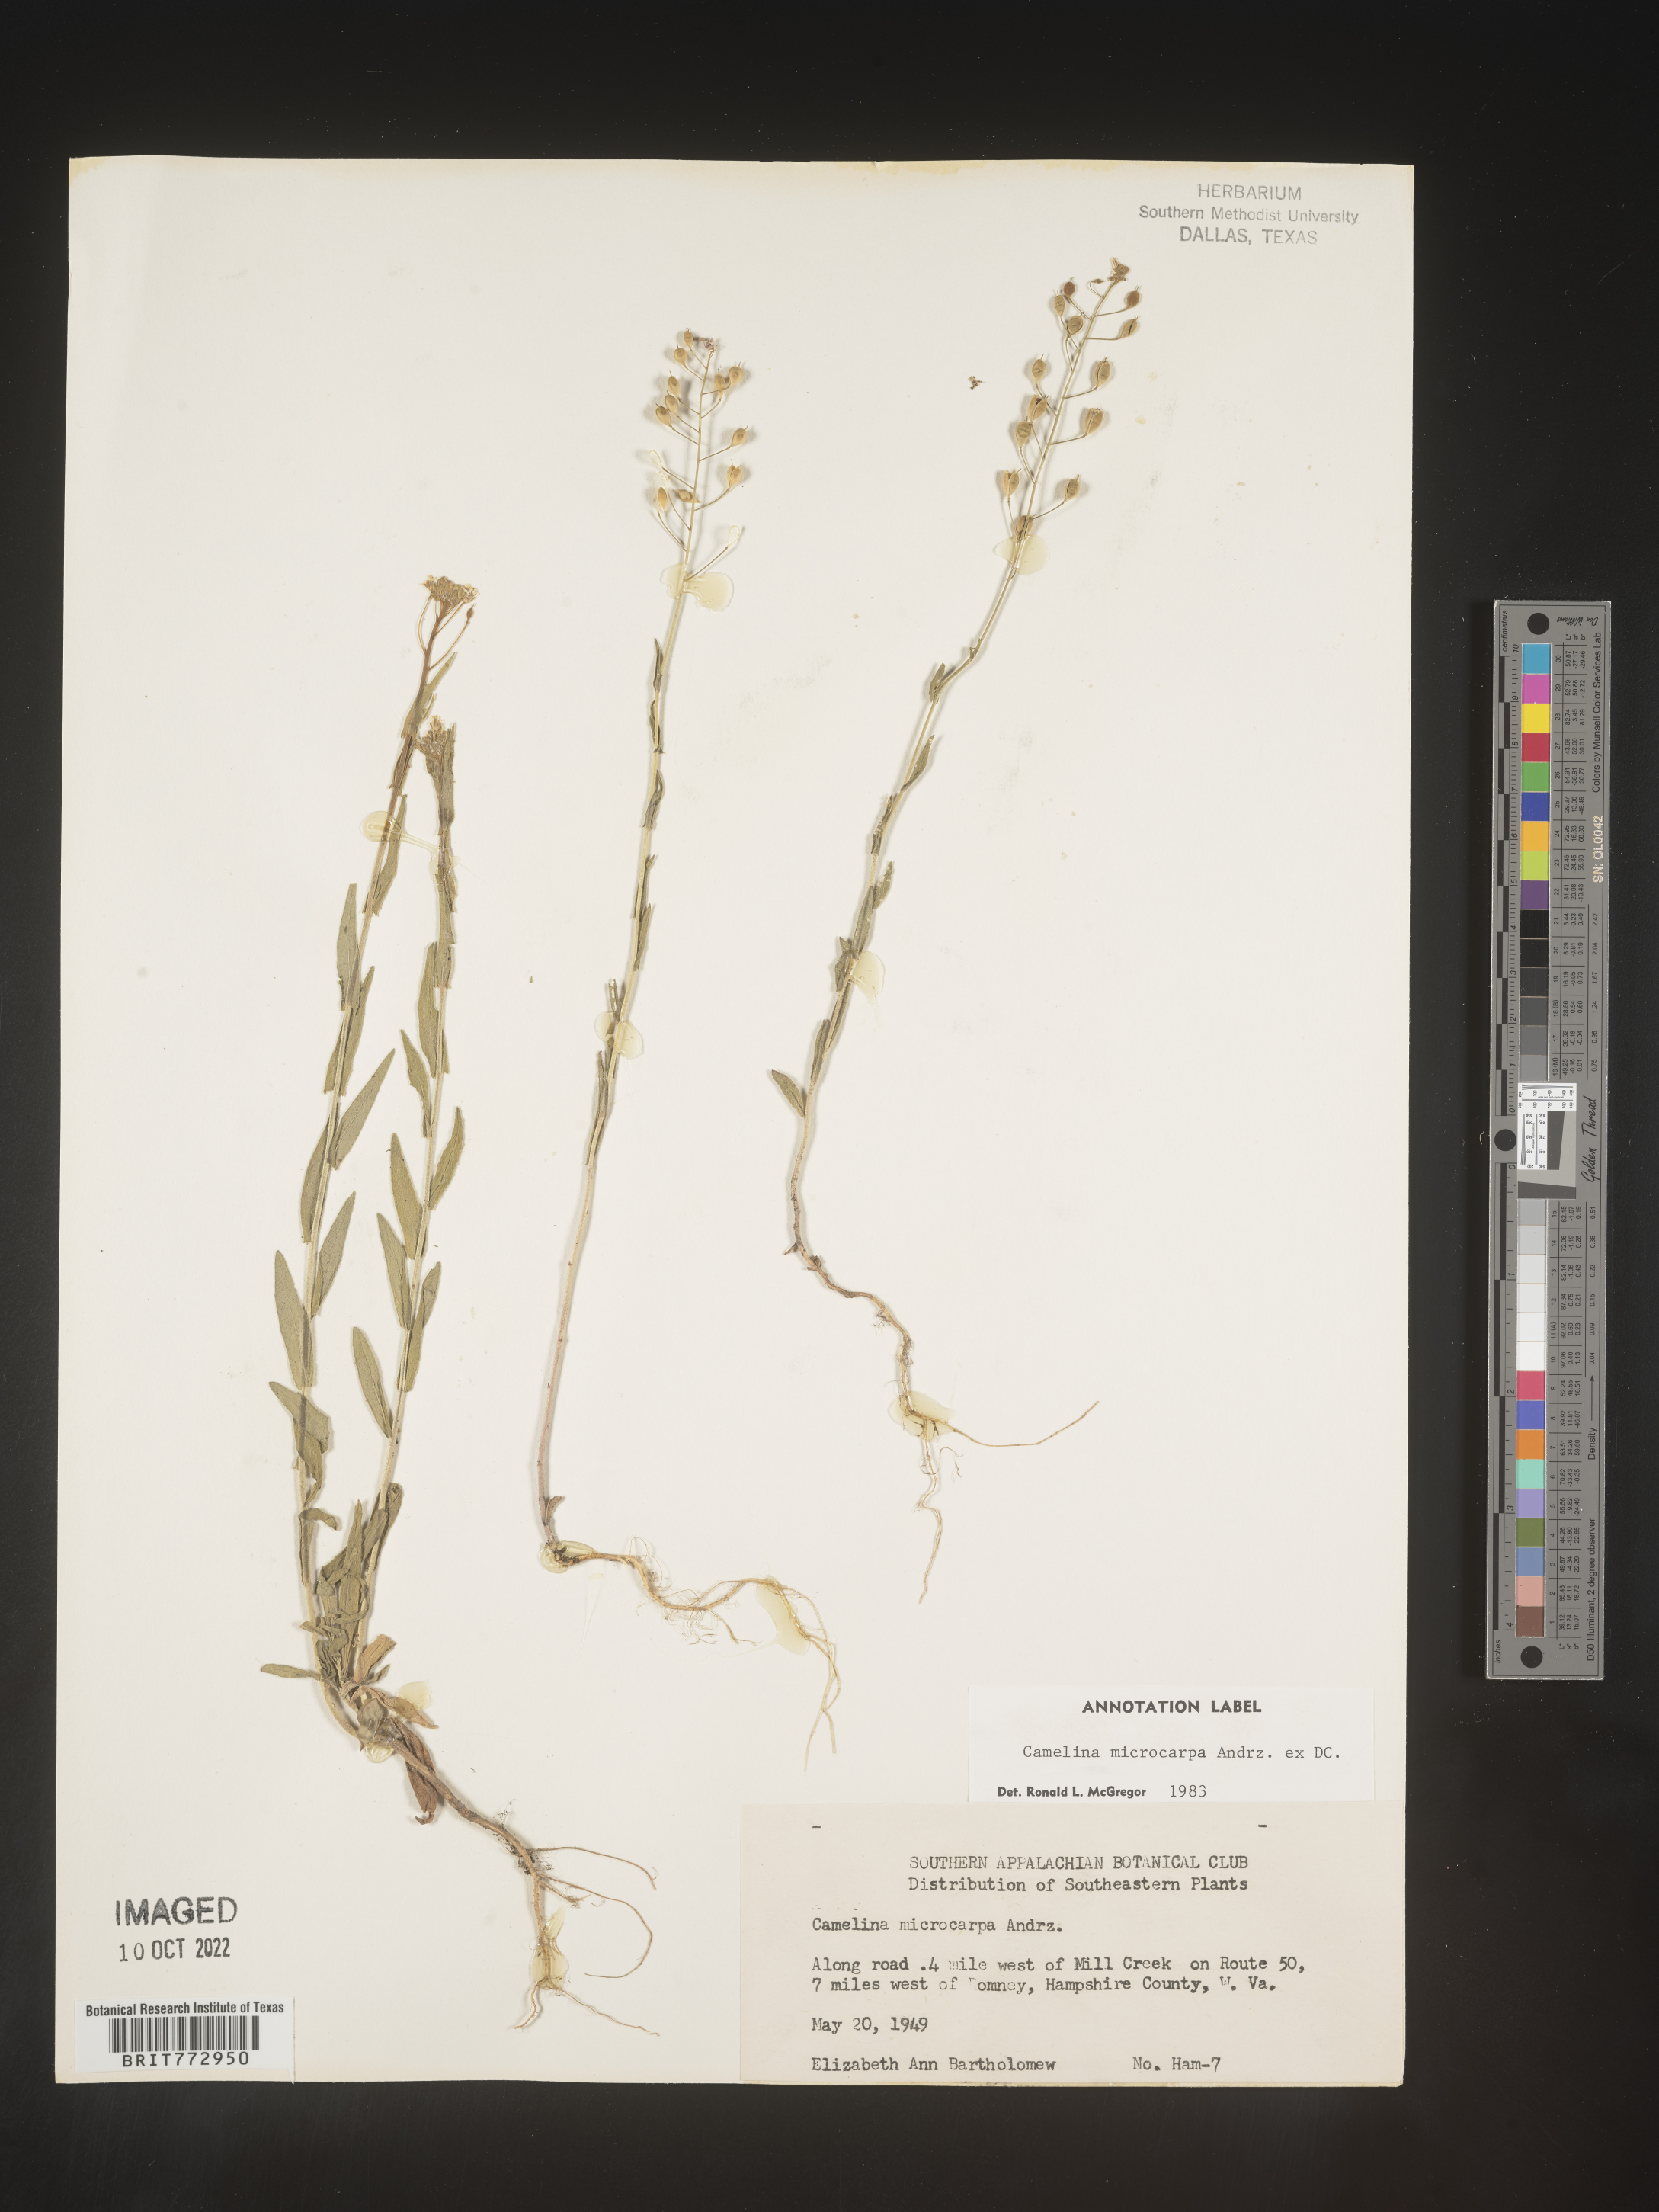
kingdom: Plantae
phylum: Tracheophyta
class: Magnoliopsida
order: Brassicales
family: Brassicaceae
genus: Camelina
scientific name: Camelina microcarpa
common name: Lesser gold-of-pleasure
